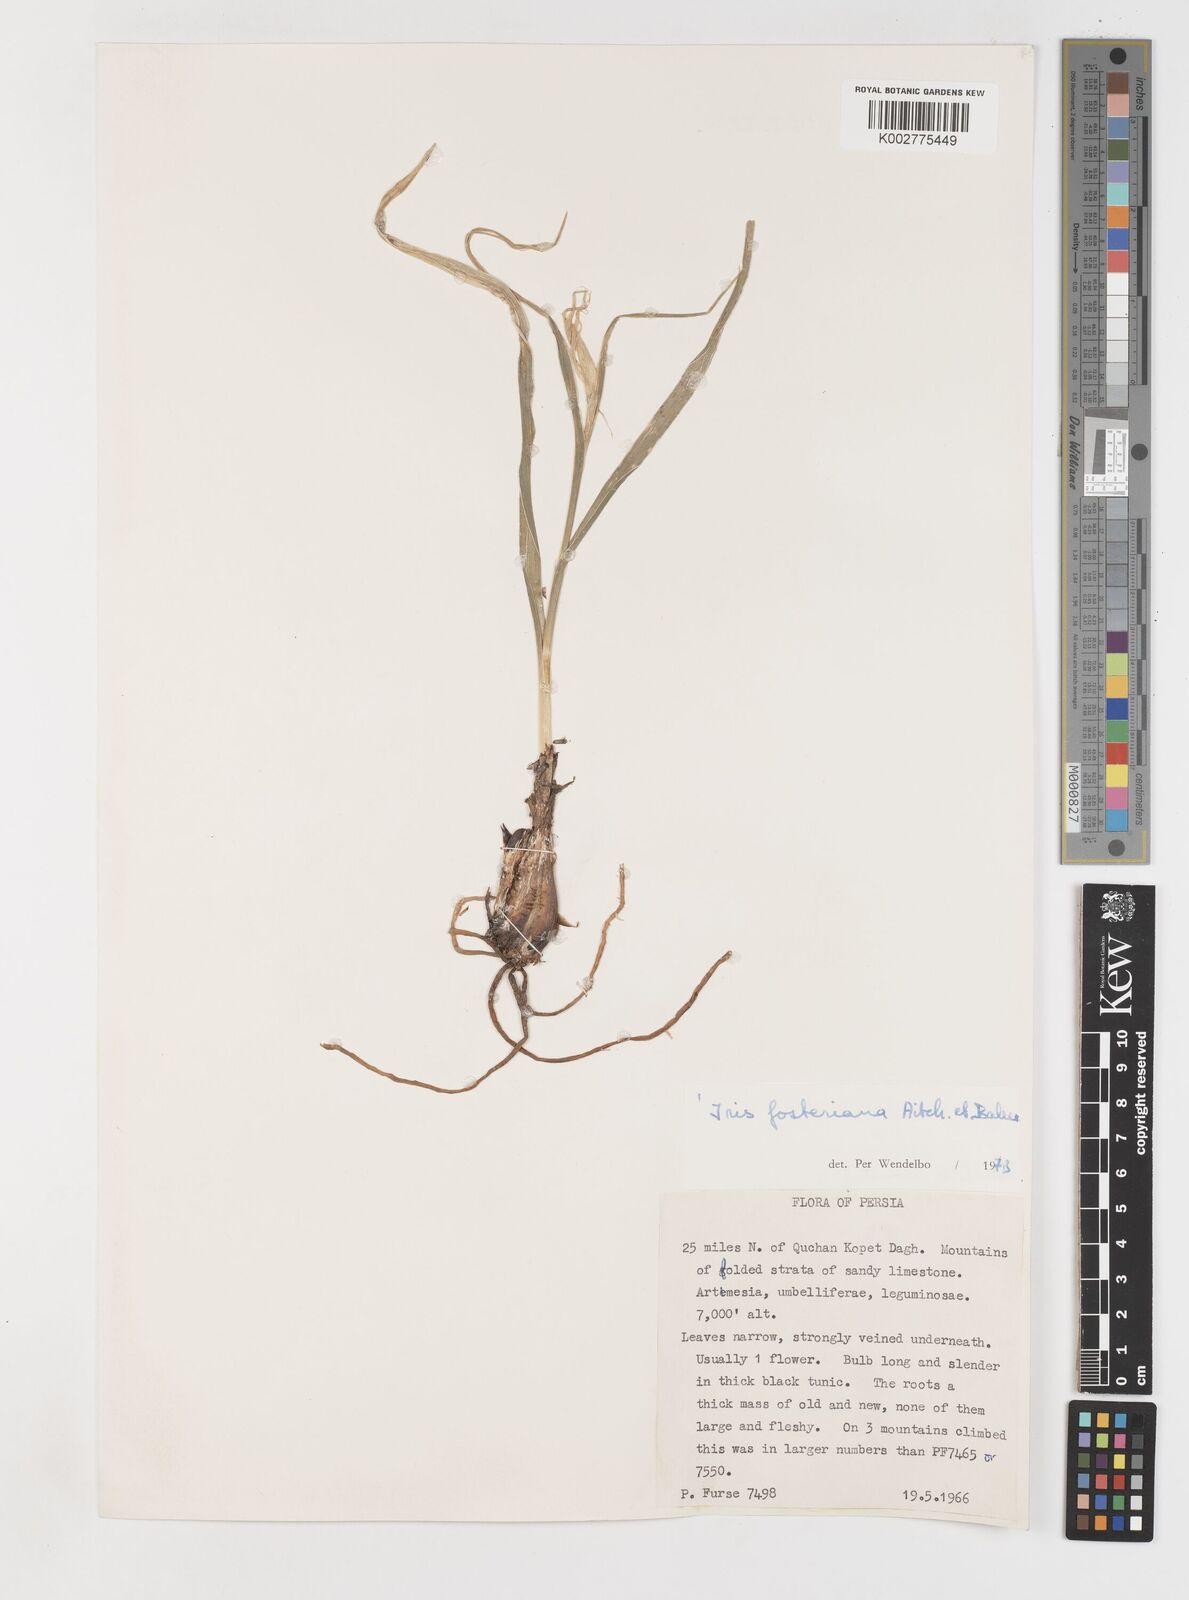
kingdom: Plantae
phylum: Tracheophyta
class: Liliopsida
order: Asparagales
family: Iridaceae
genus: Iris
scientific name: Iris fosteriana
